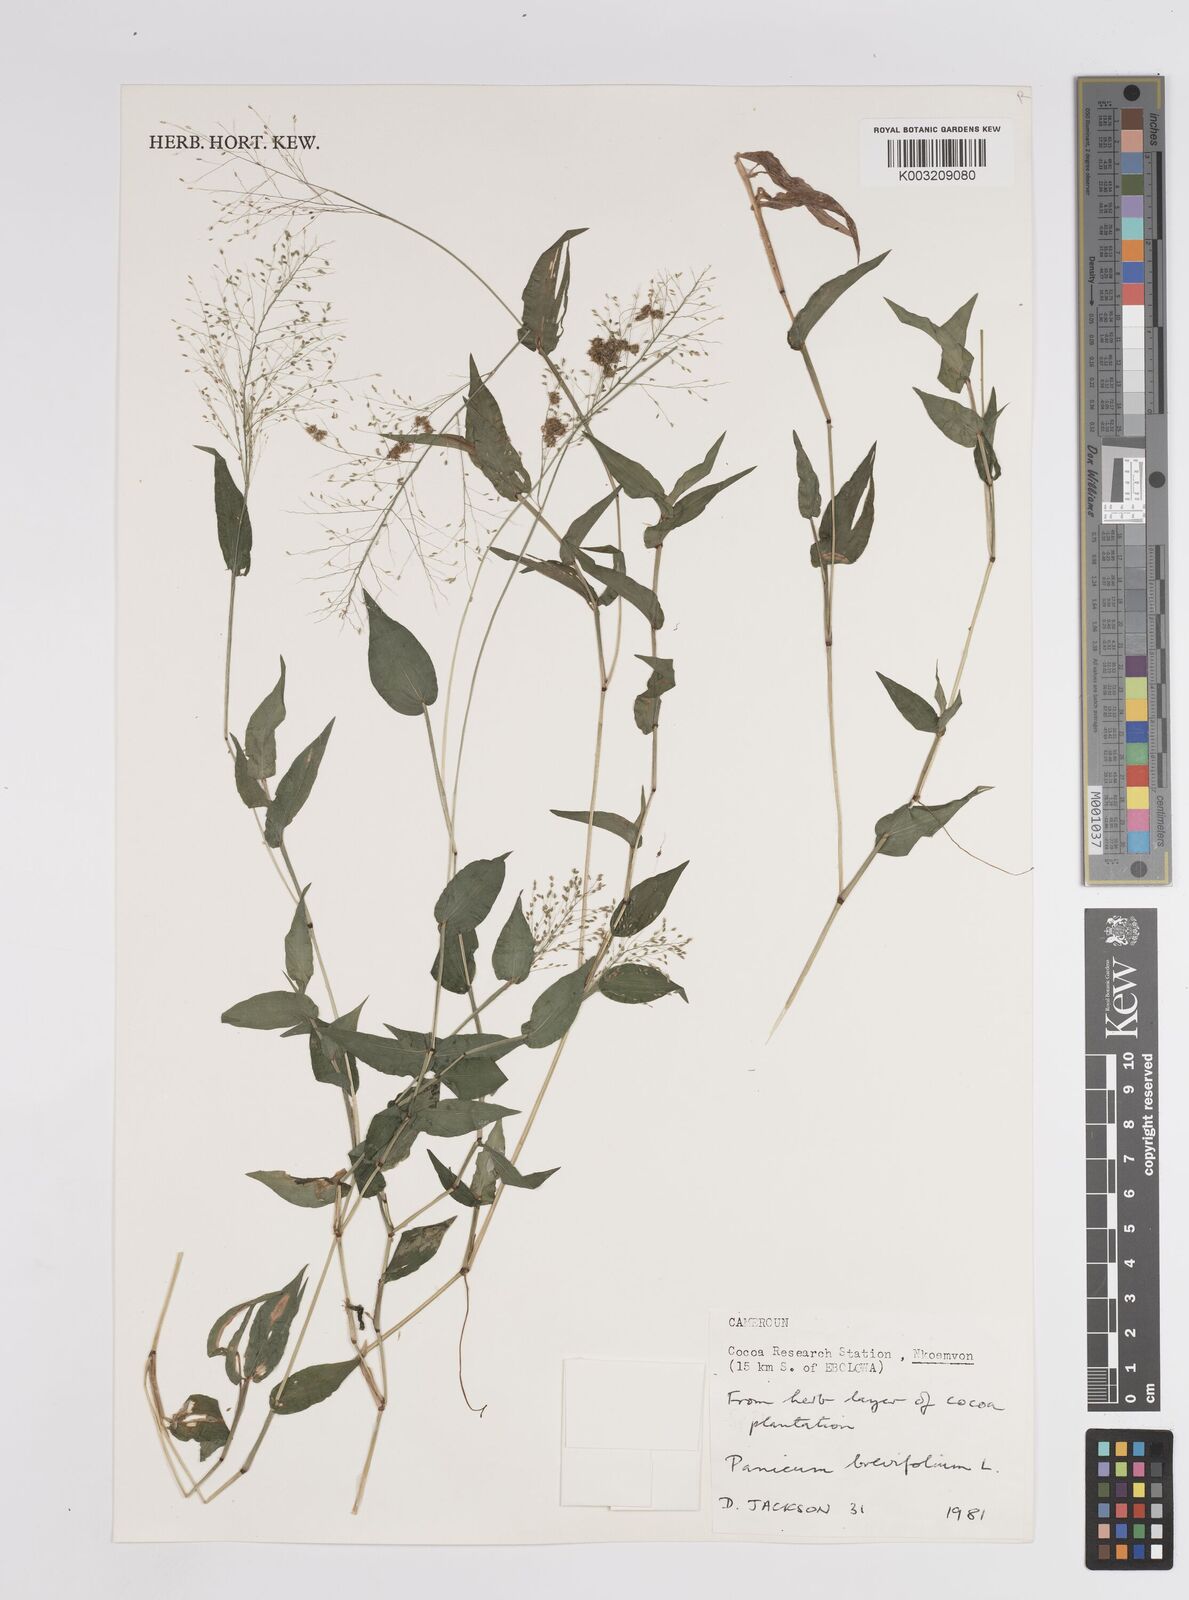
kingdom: Plantae
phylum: Tracheophyta
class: Liliopsida
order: Poales
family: Poaceae
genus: Panicum
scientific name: Panicum brevifolium
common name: Shortleaf panic grass
